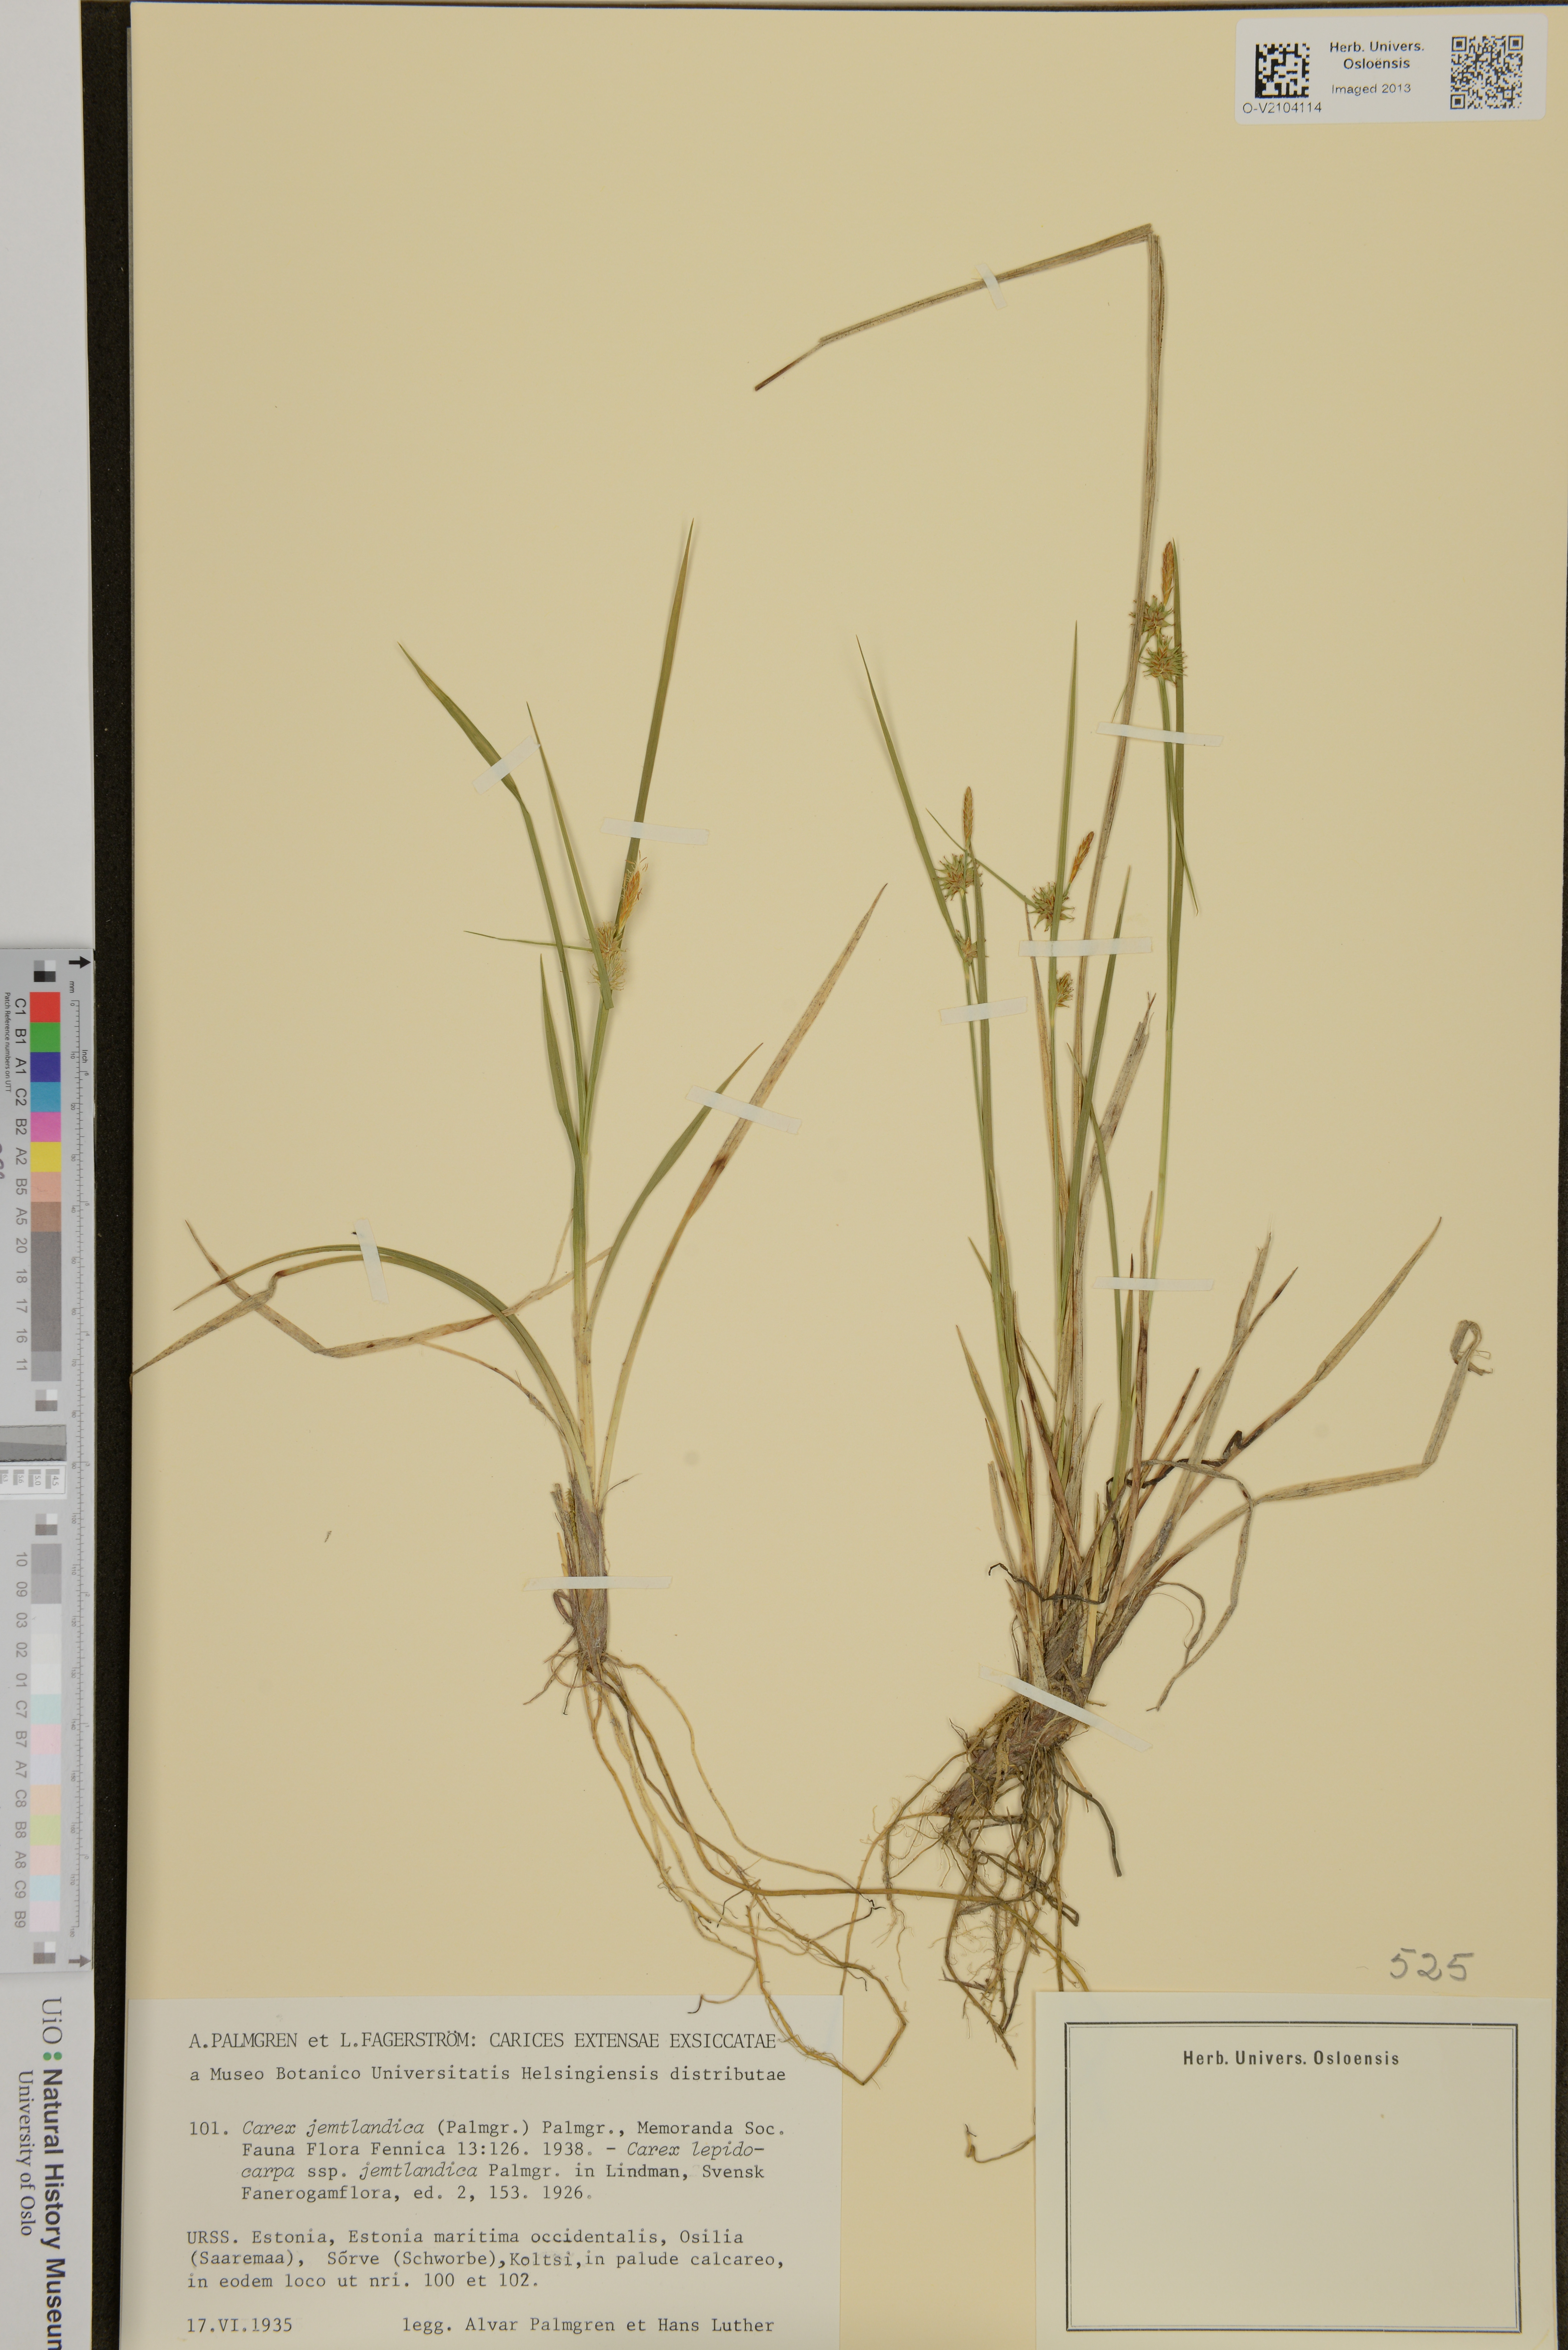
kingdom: Plantae
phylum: Tracheophyta
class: Liliopsida
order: Poales
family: Cyperaceae
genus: Carex
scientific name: Carex lepidocarpa
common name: Long-stalked yellow-sedge
